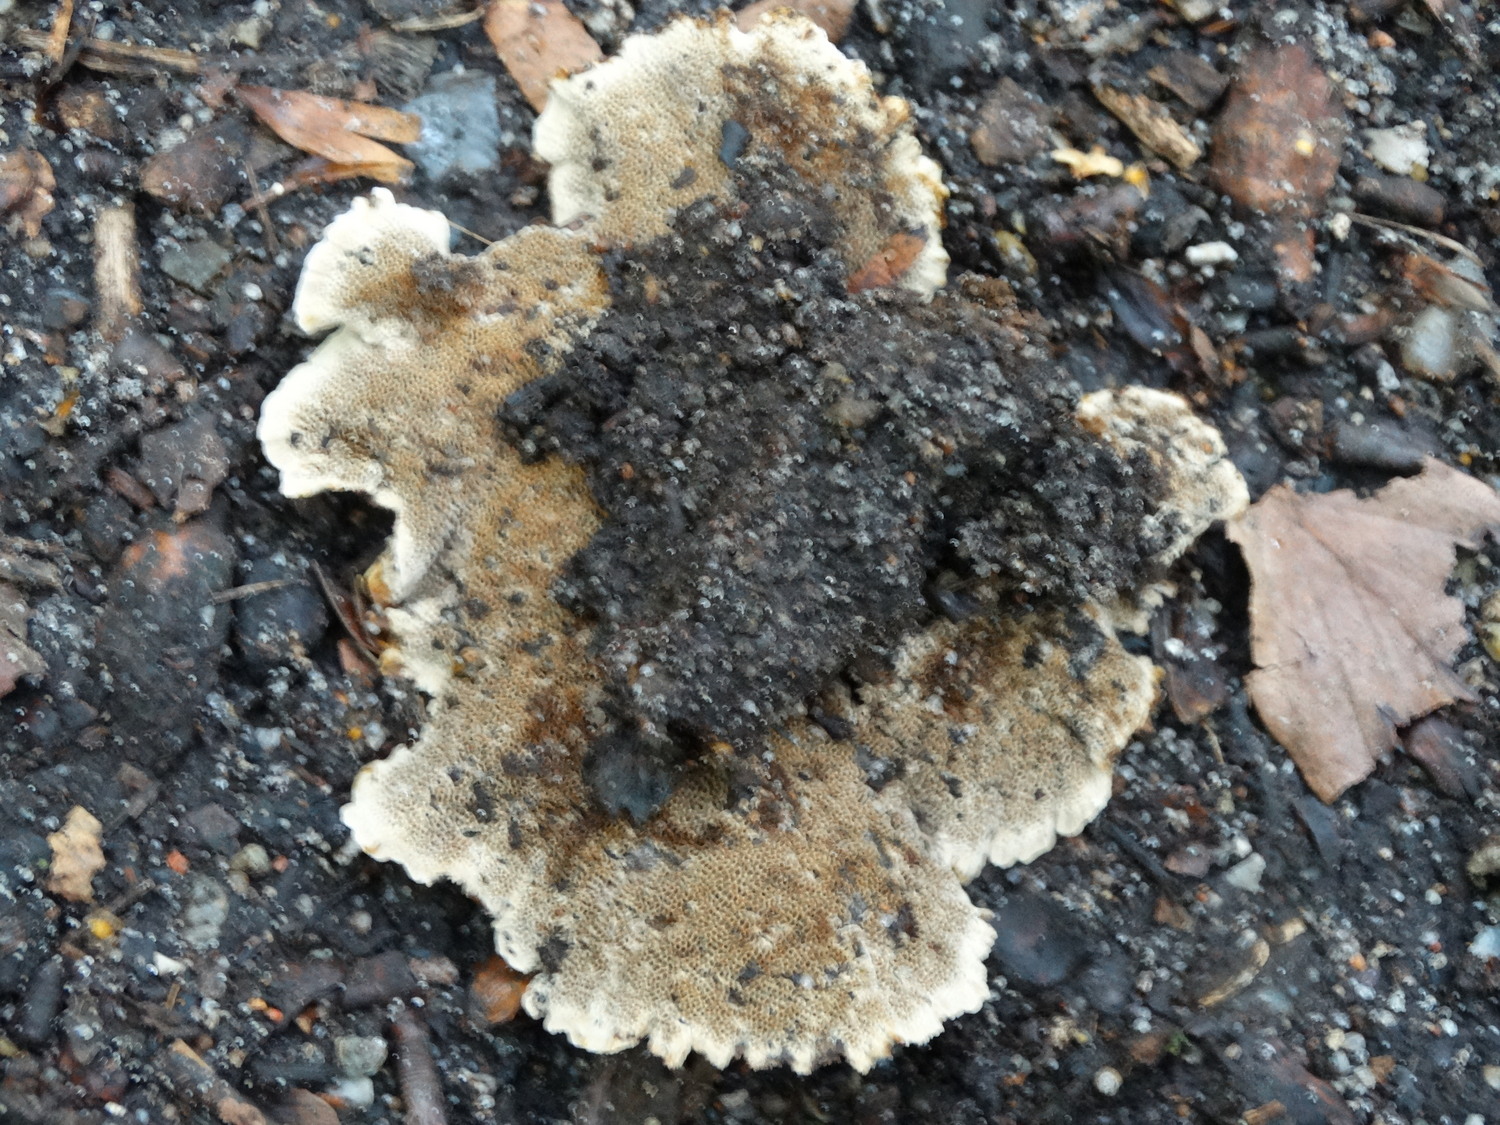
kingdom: Fungi
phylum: Basidiomycota
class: Agaricomycetes
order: Hymenochaetales
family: Hymenochaetaceae
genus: Coltricia
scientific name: Coltricia perennis
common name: almindelig sandporesvamp
